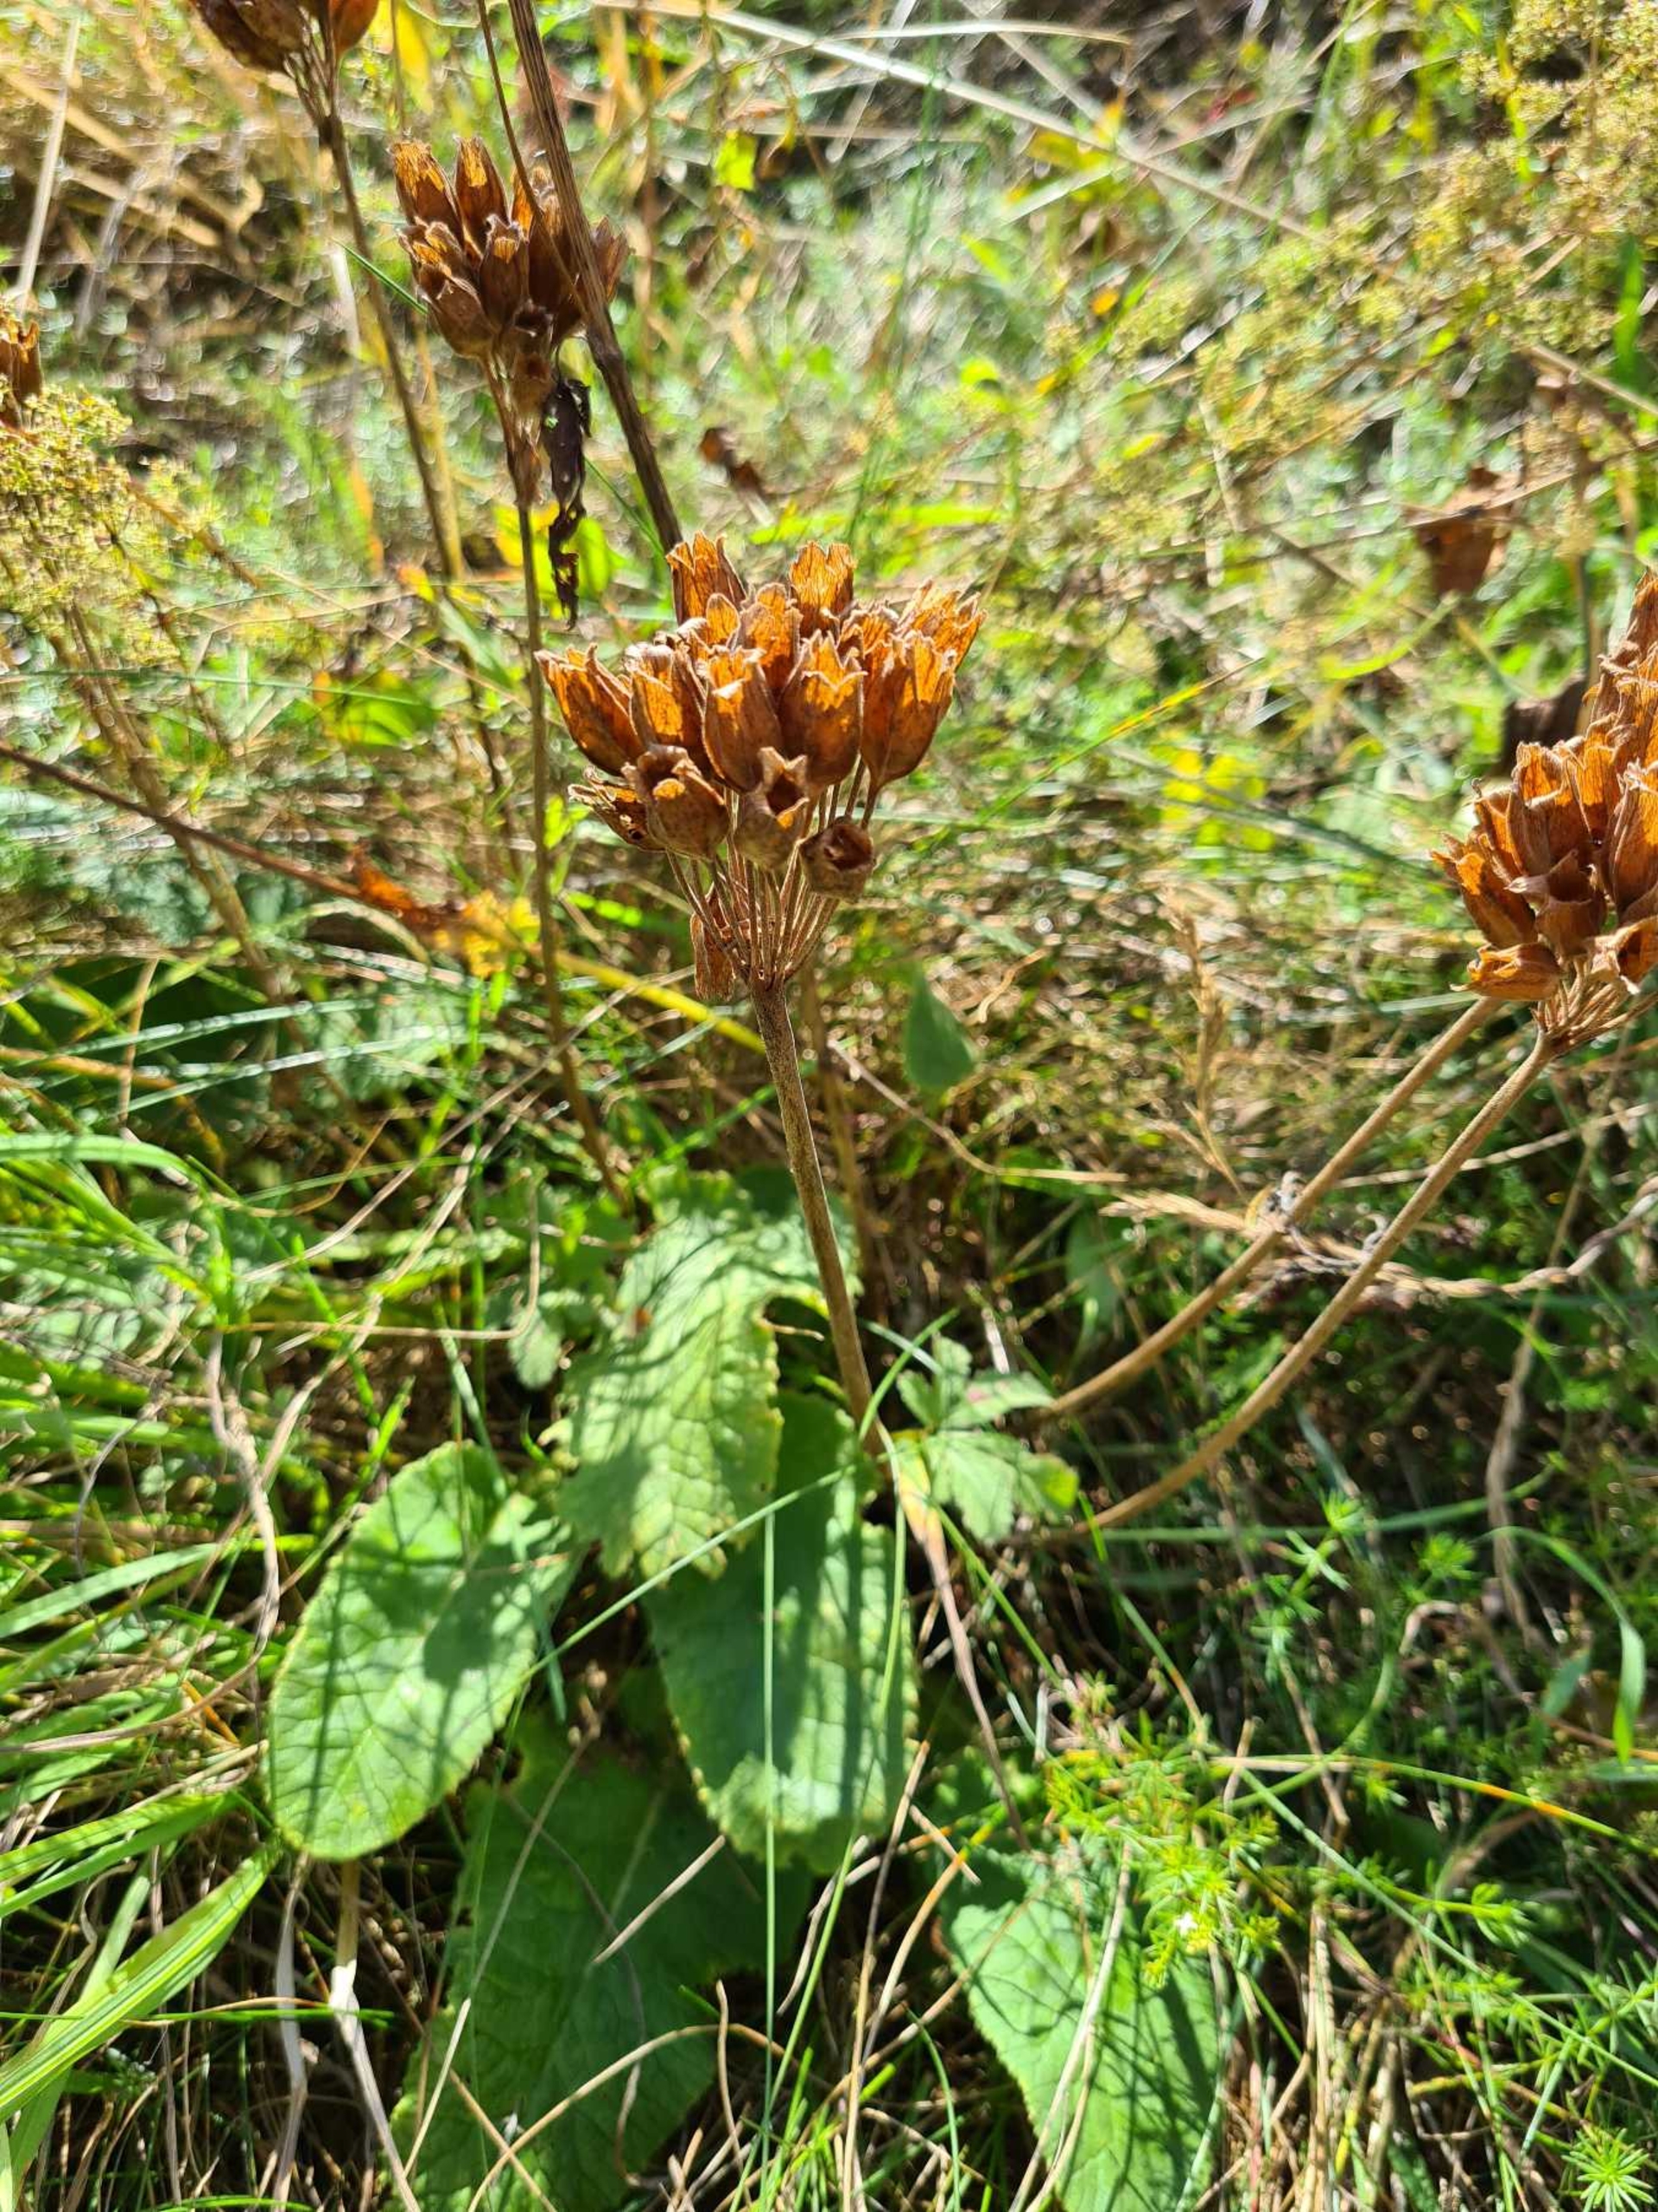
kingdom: Plantae
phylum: Tracheophyta
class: Magnoliopsida
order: Ericales
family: Primulaceae
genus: Primula
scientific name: Primula veris
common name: Hulkravet kodriver
